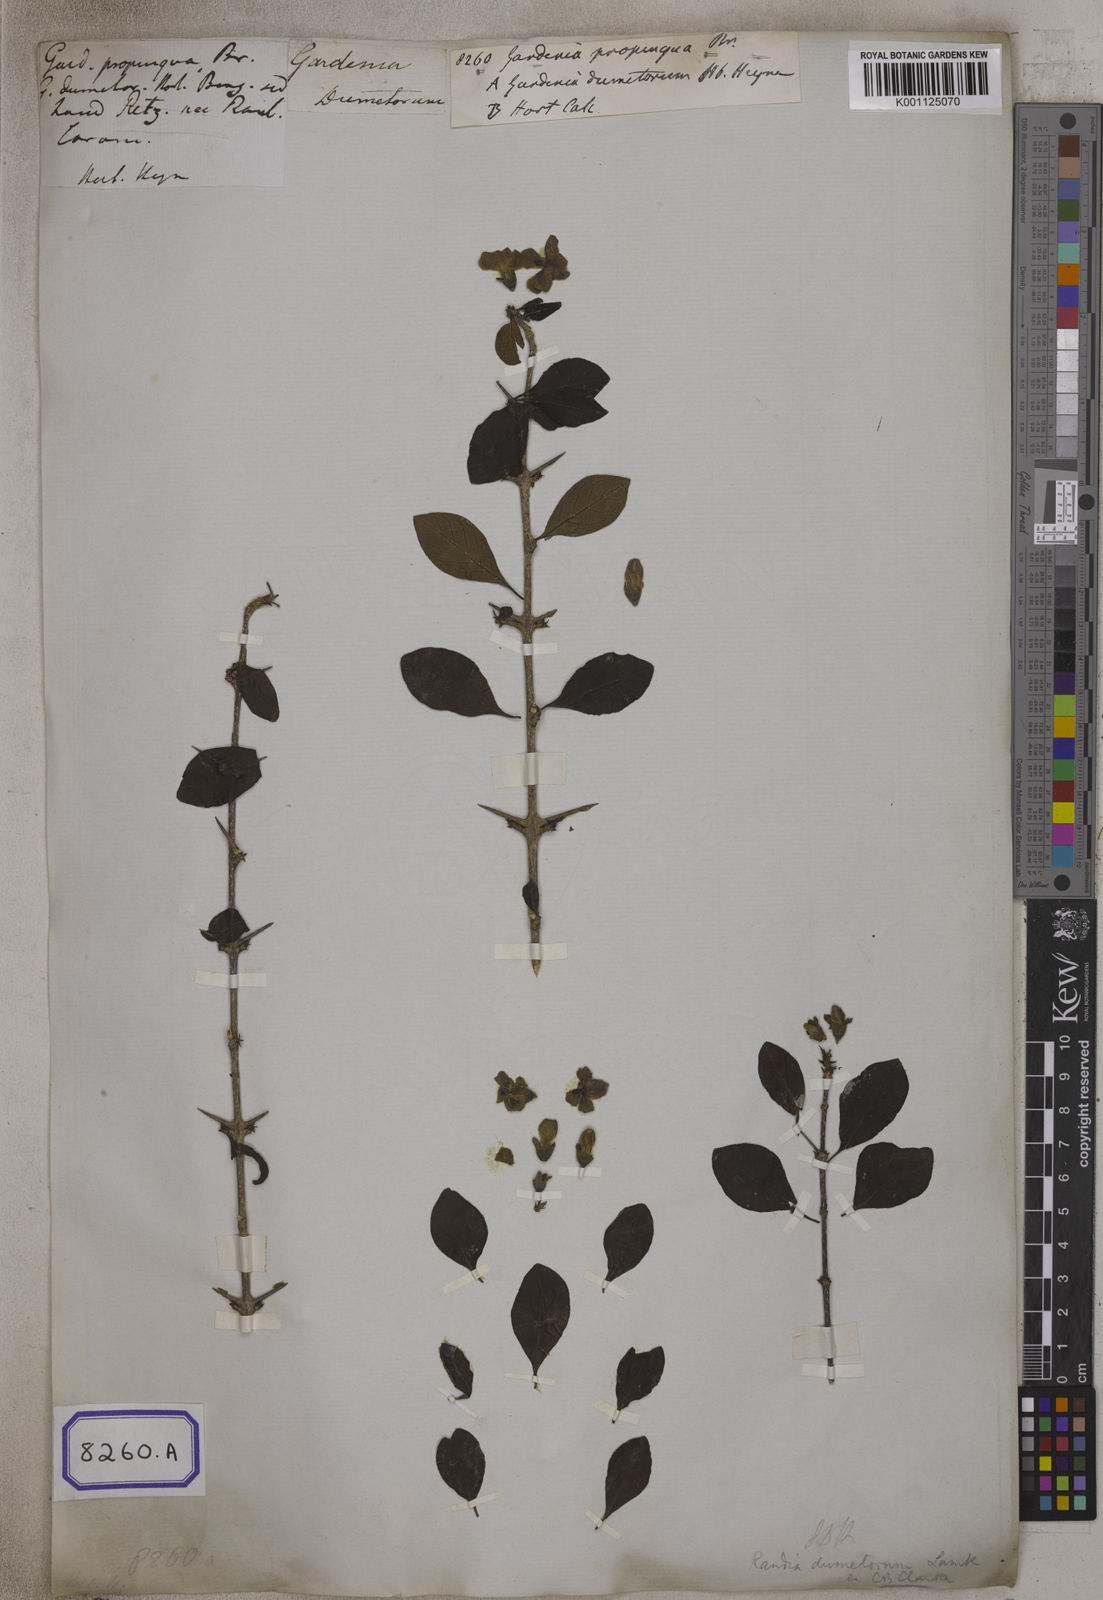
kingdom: Plantae
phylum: Tracheophyta
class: Magnoliopsida
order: Gentianales
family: Rubiaceae
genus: Gardenia
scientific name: Gardenia
